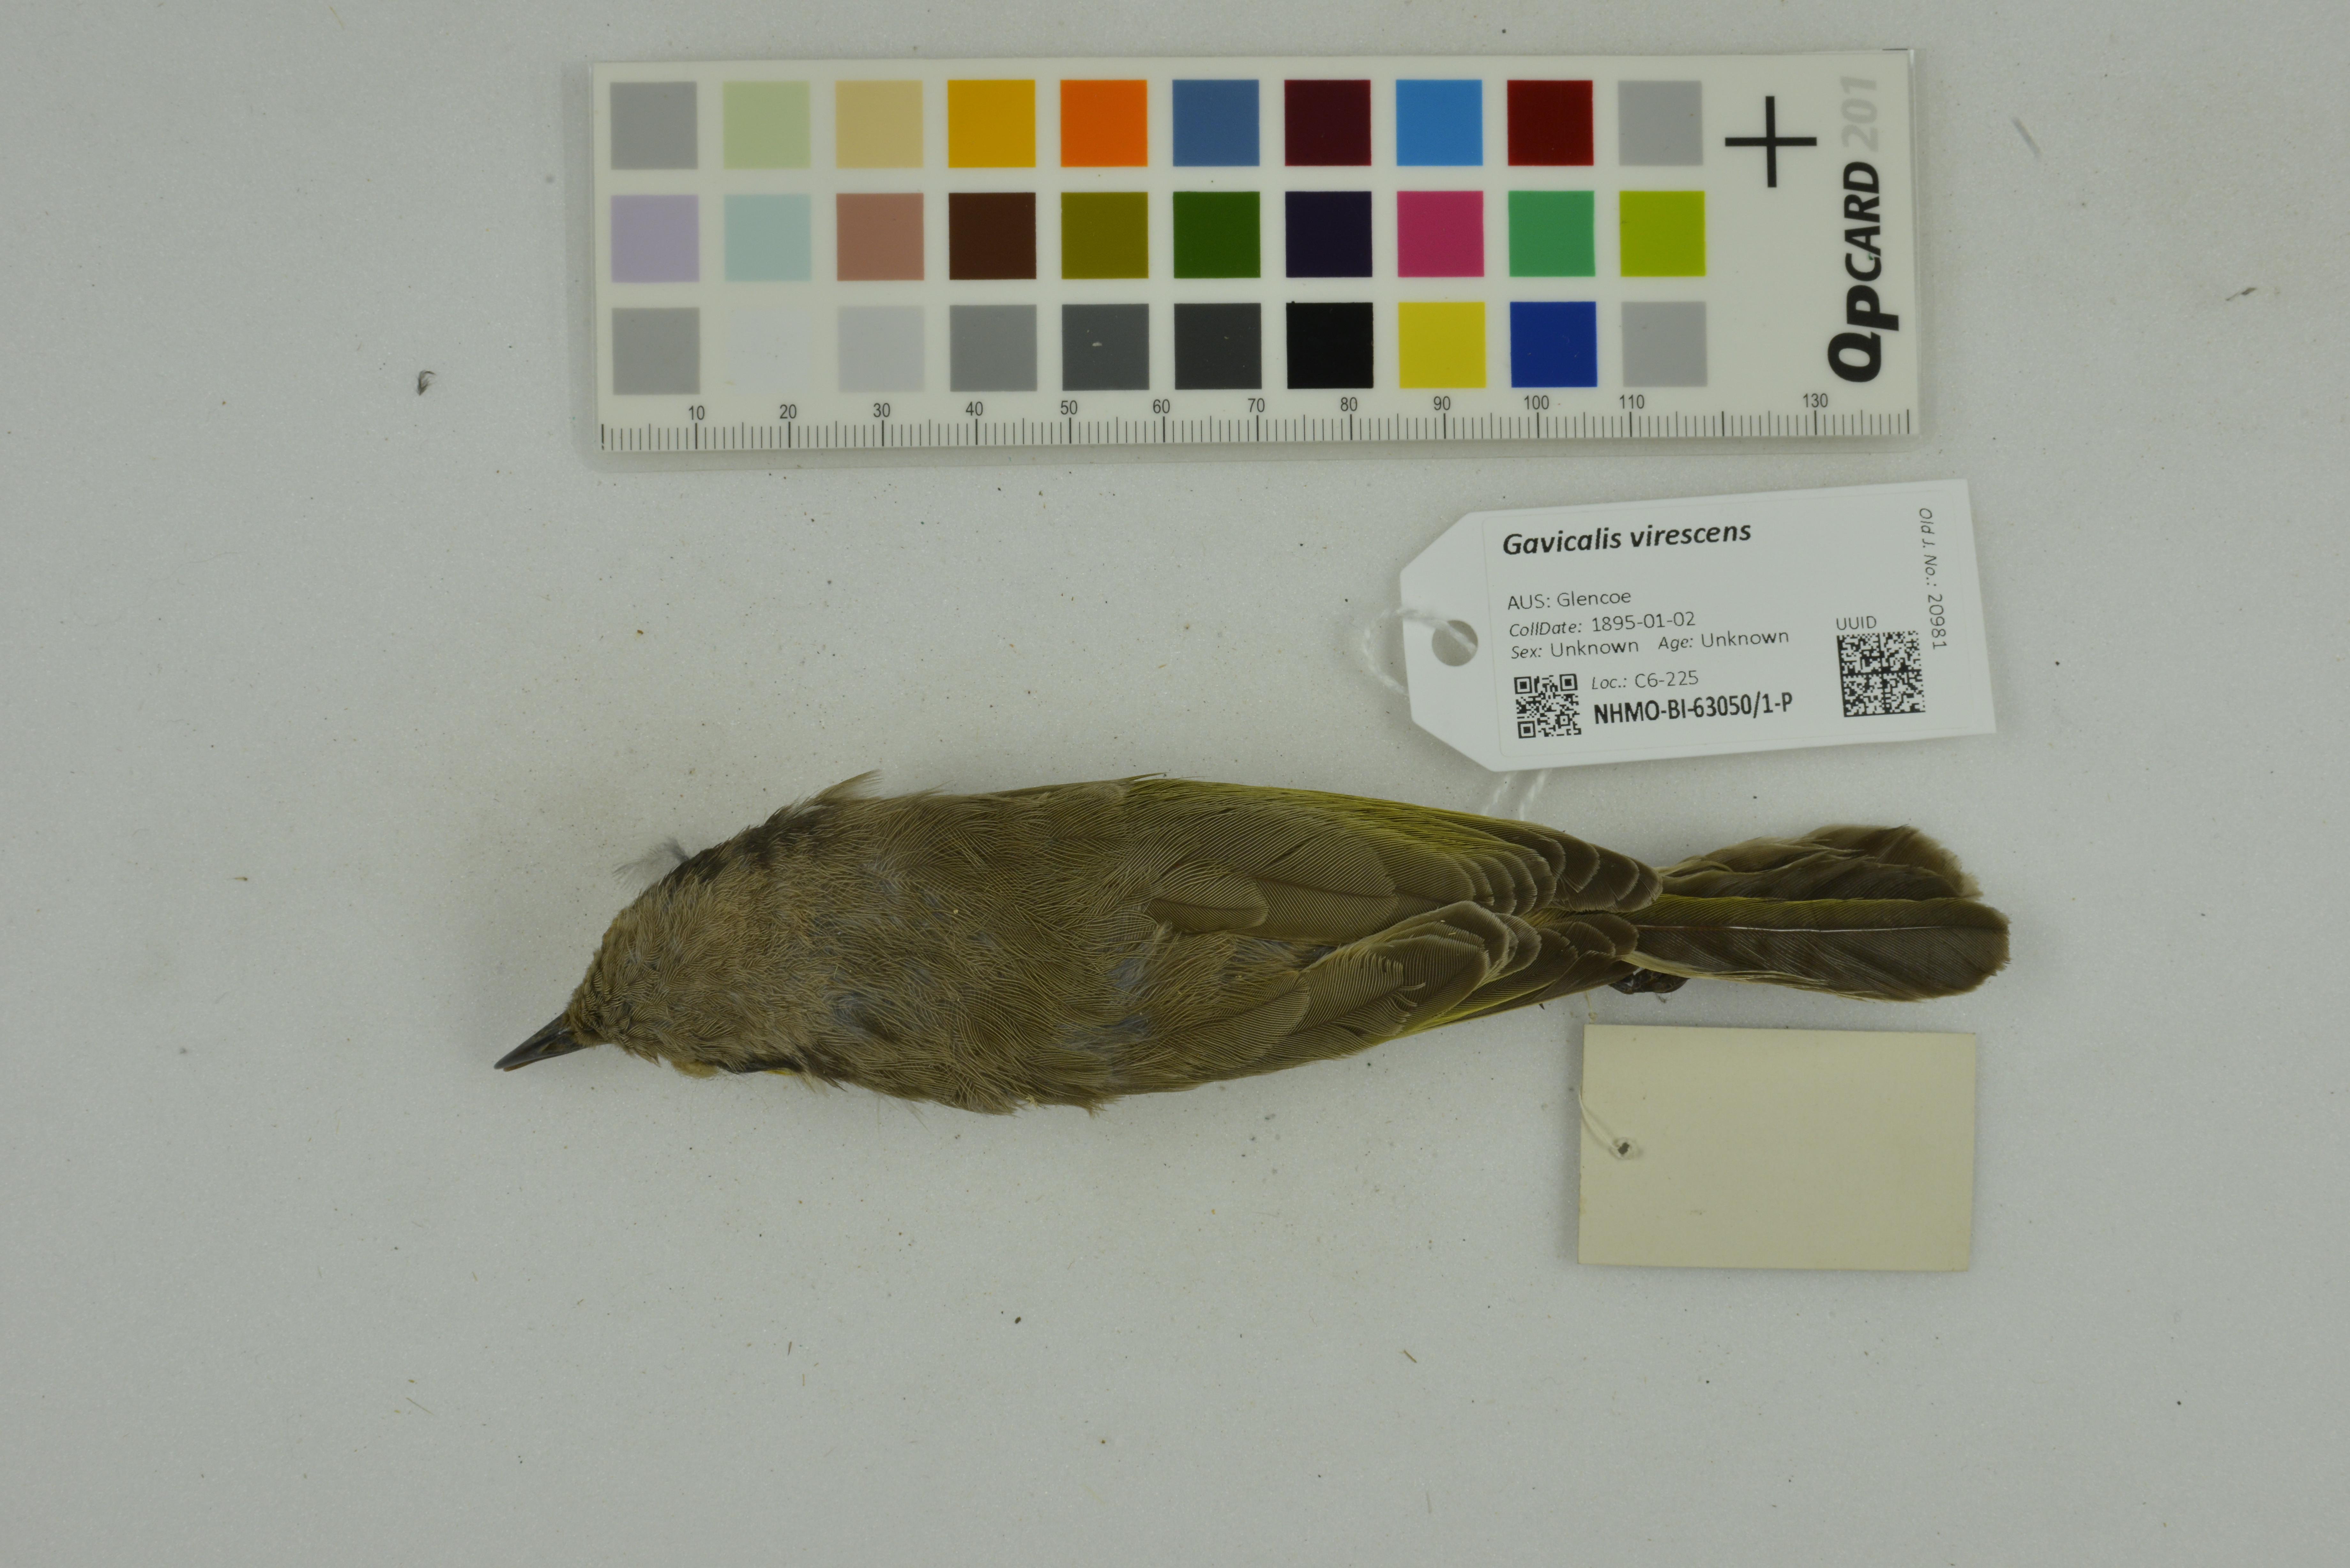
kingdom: Animalia
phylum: Chordata
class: Aves
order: Passeriformes
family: Meliphagidae
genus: Gavicalis
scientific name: Gavicalis virescens
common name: Singing honeyeater
